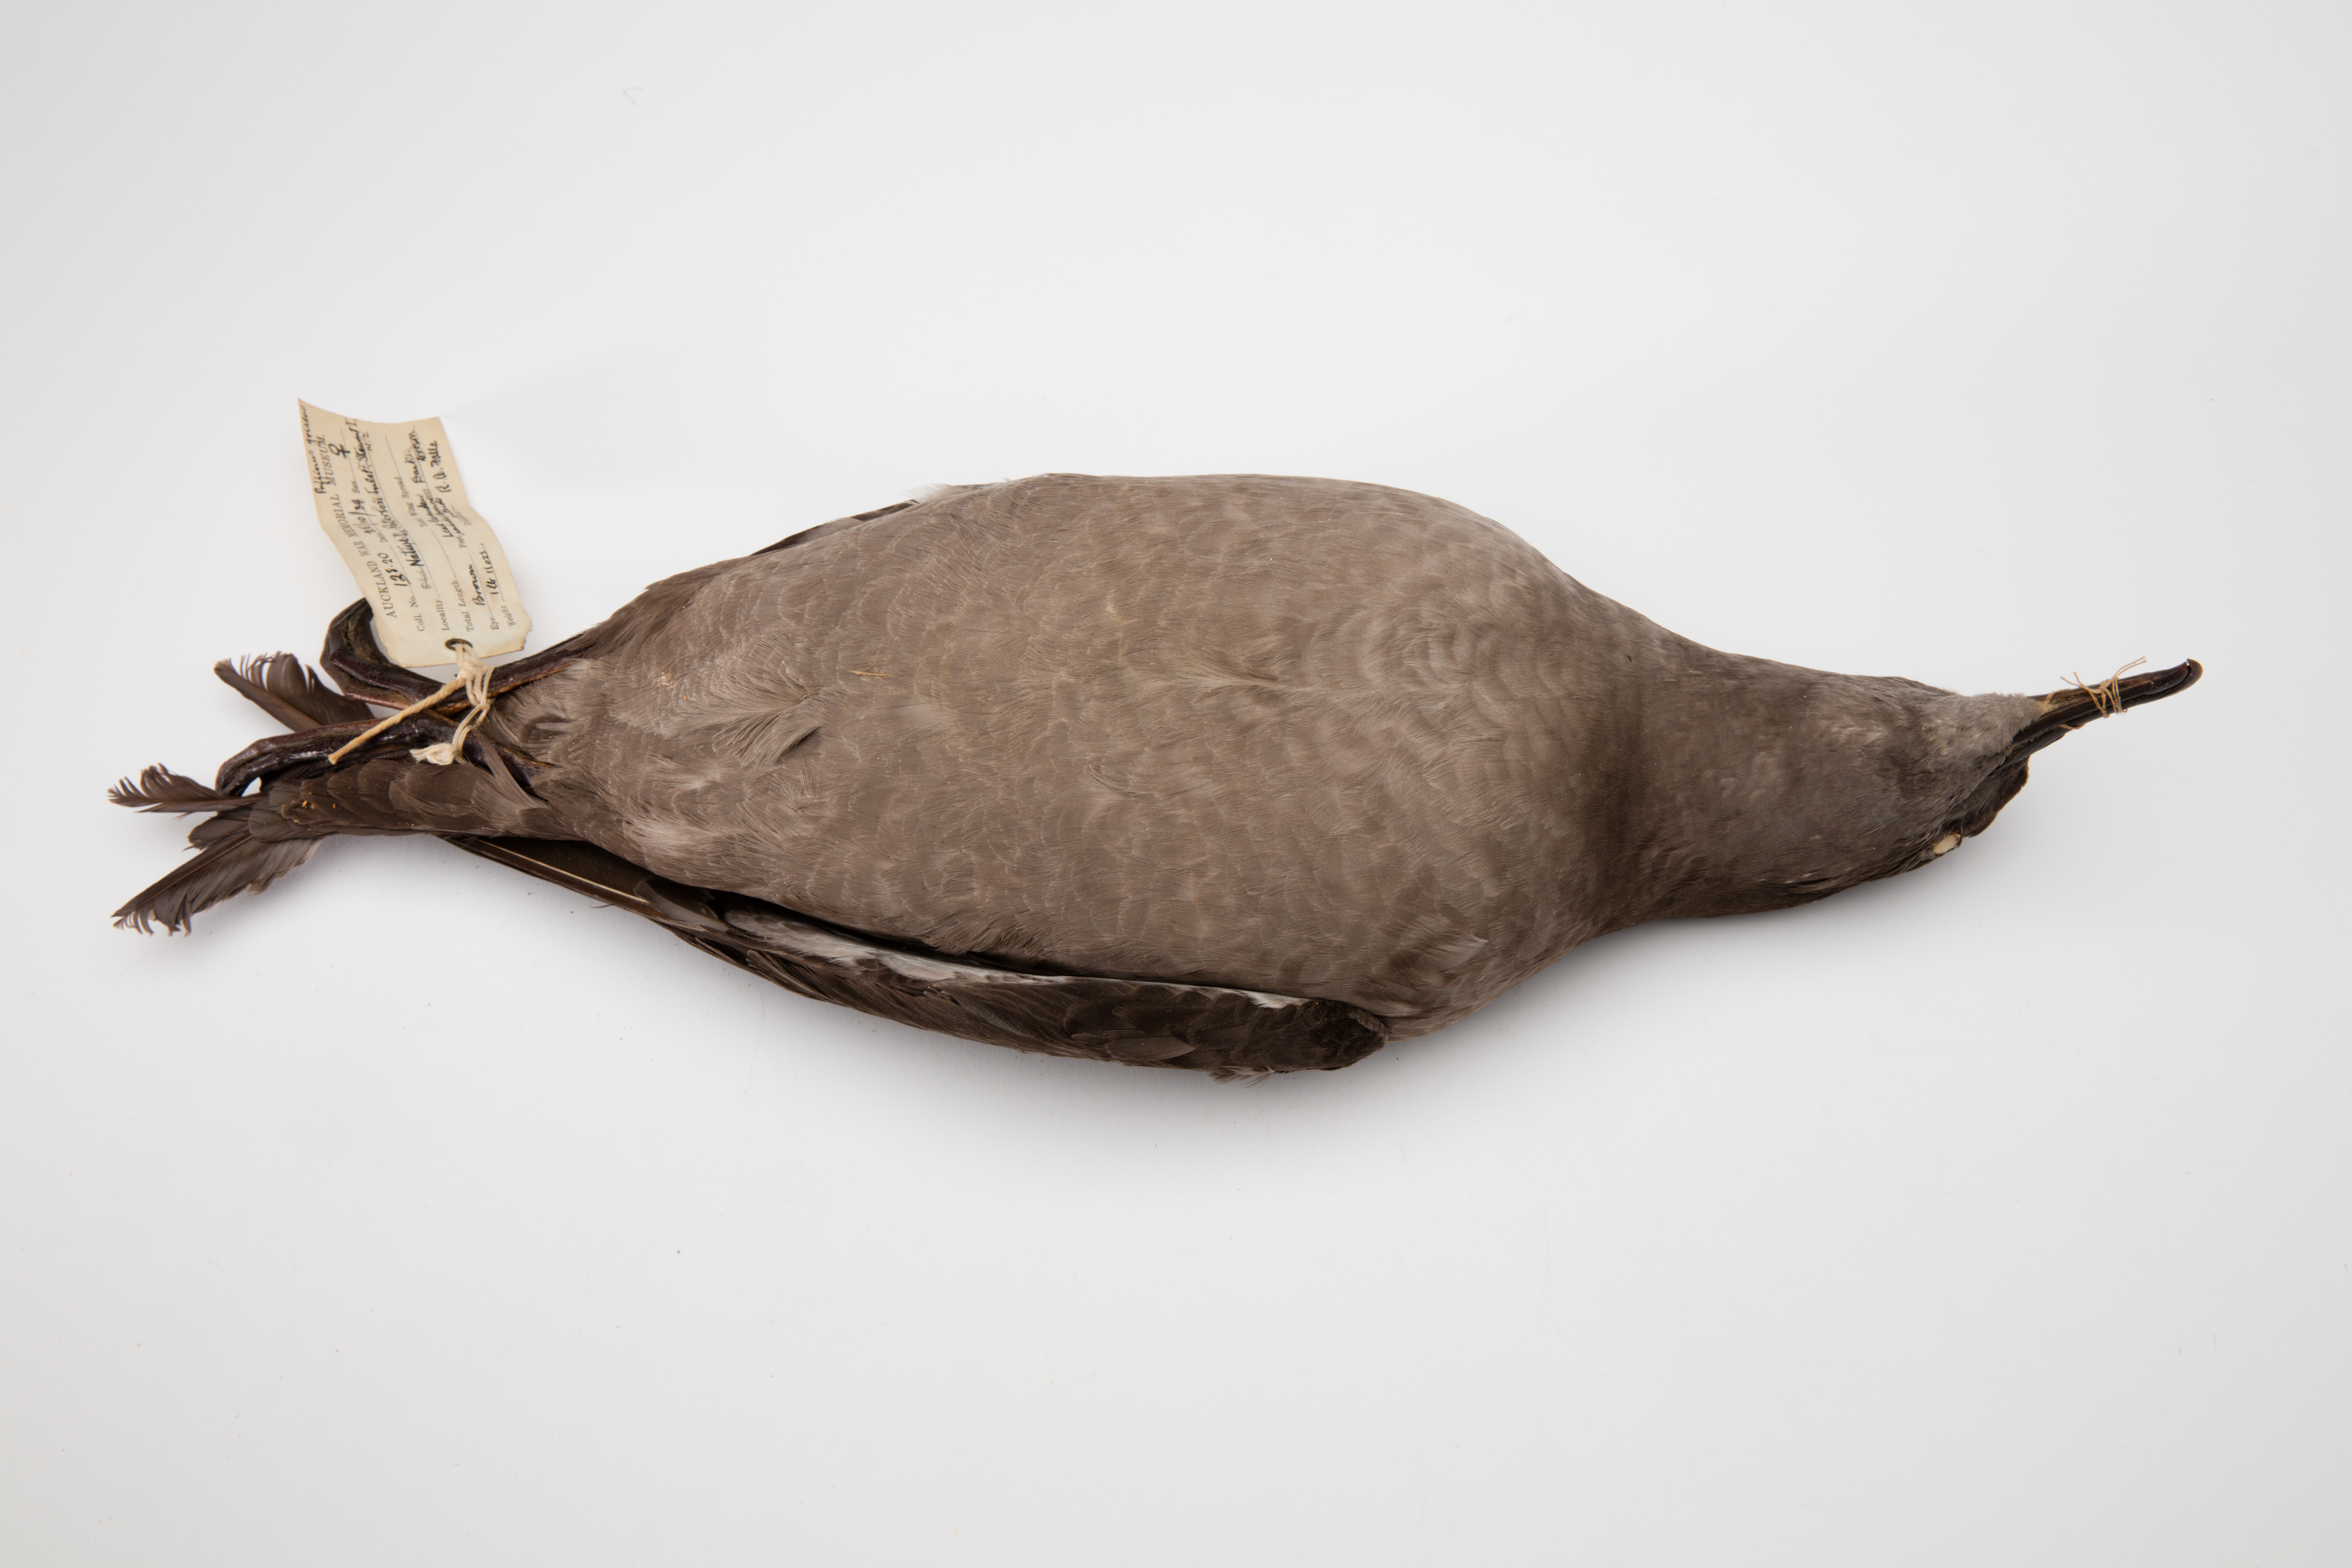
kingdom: Animalia
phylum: Chordata
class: Aves
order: Procellariiformes
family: Procellariidae
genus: Puffinus
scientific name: Puffinus griseus
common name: Sooty shearwater
